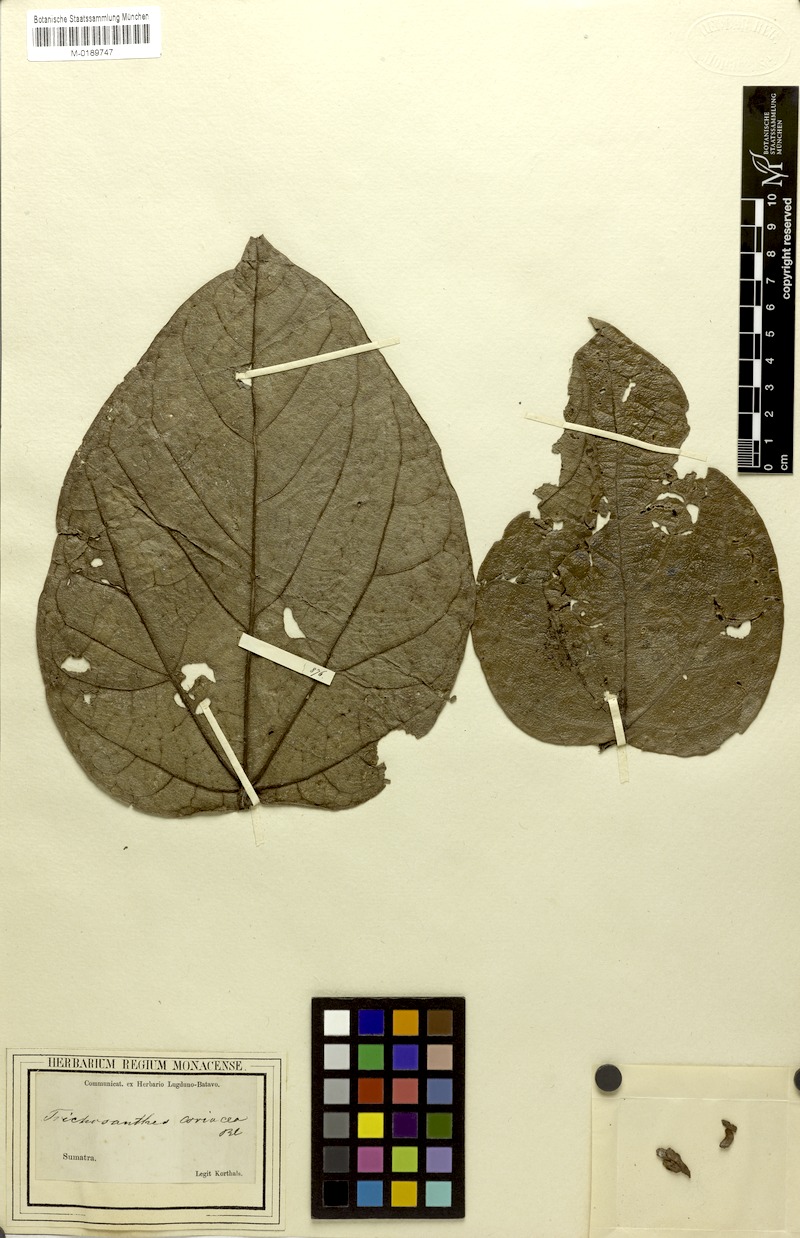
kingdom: Plantae
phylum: Tracheophyta
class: Magnoliopsida
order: Cucurbitales
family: Cucurbitaceae
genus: Trichosanthes
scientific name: Trichosanthes coriacea
